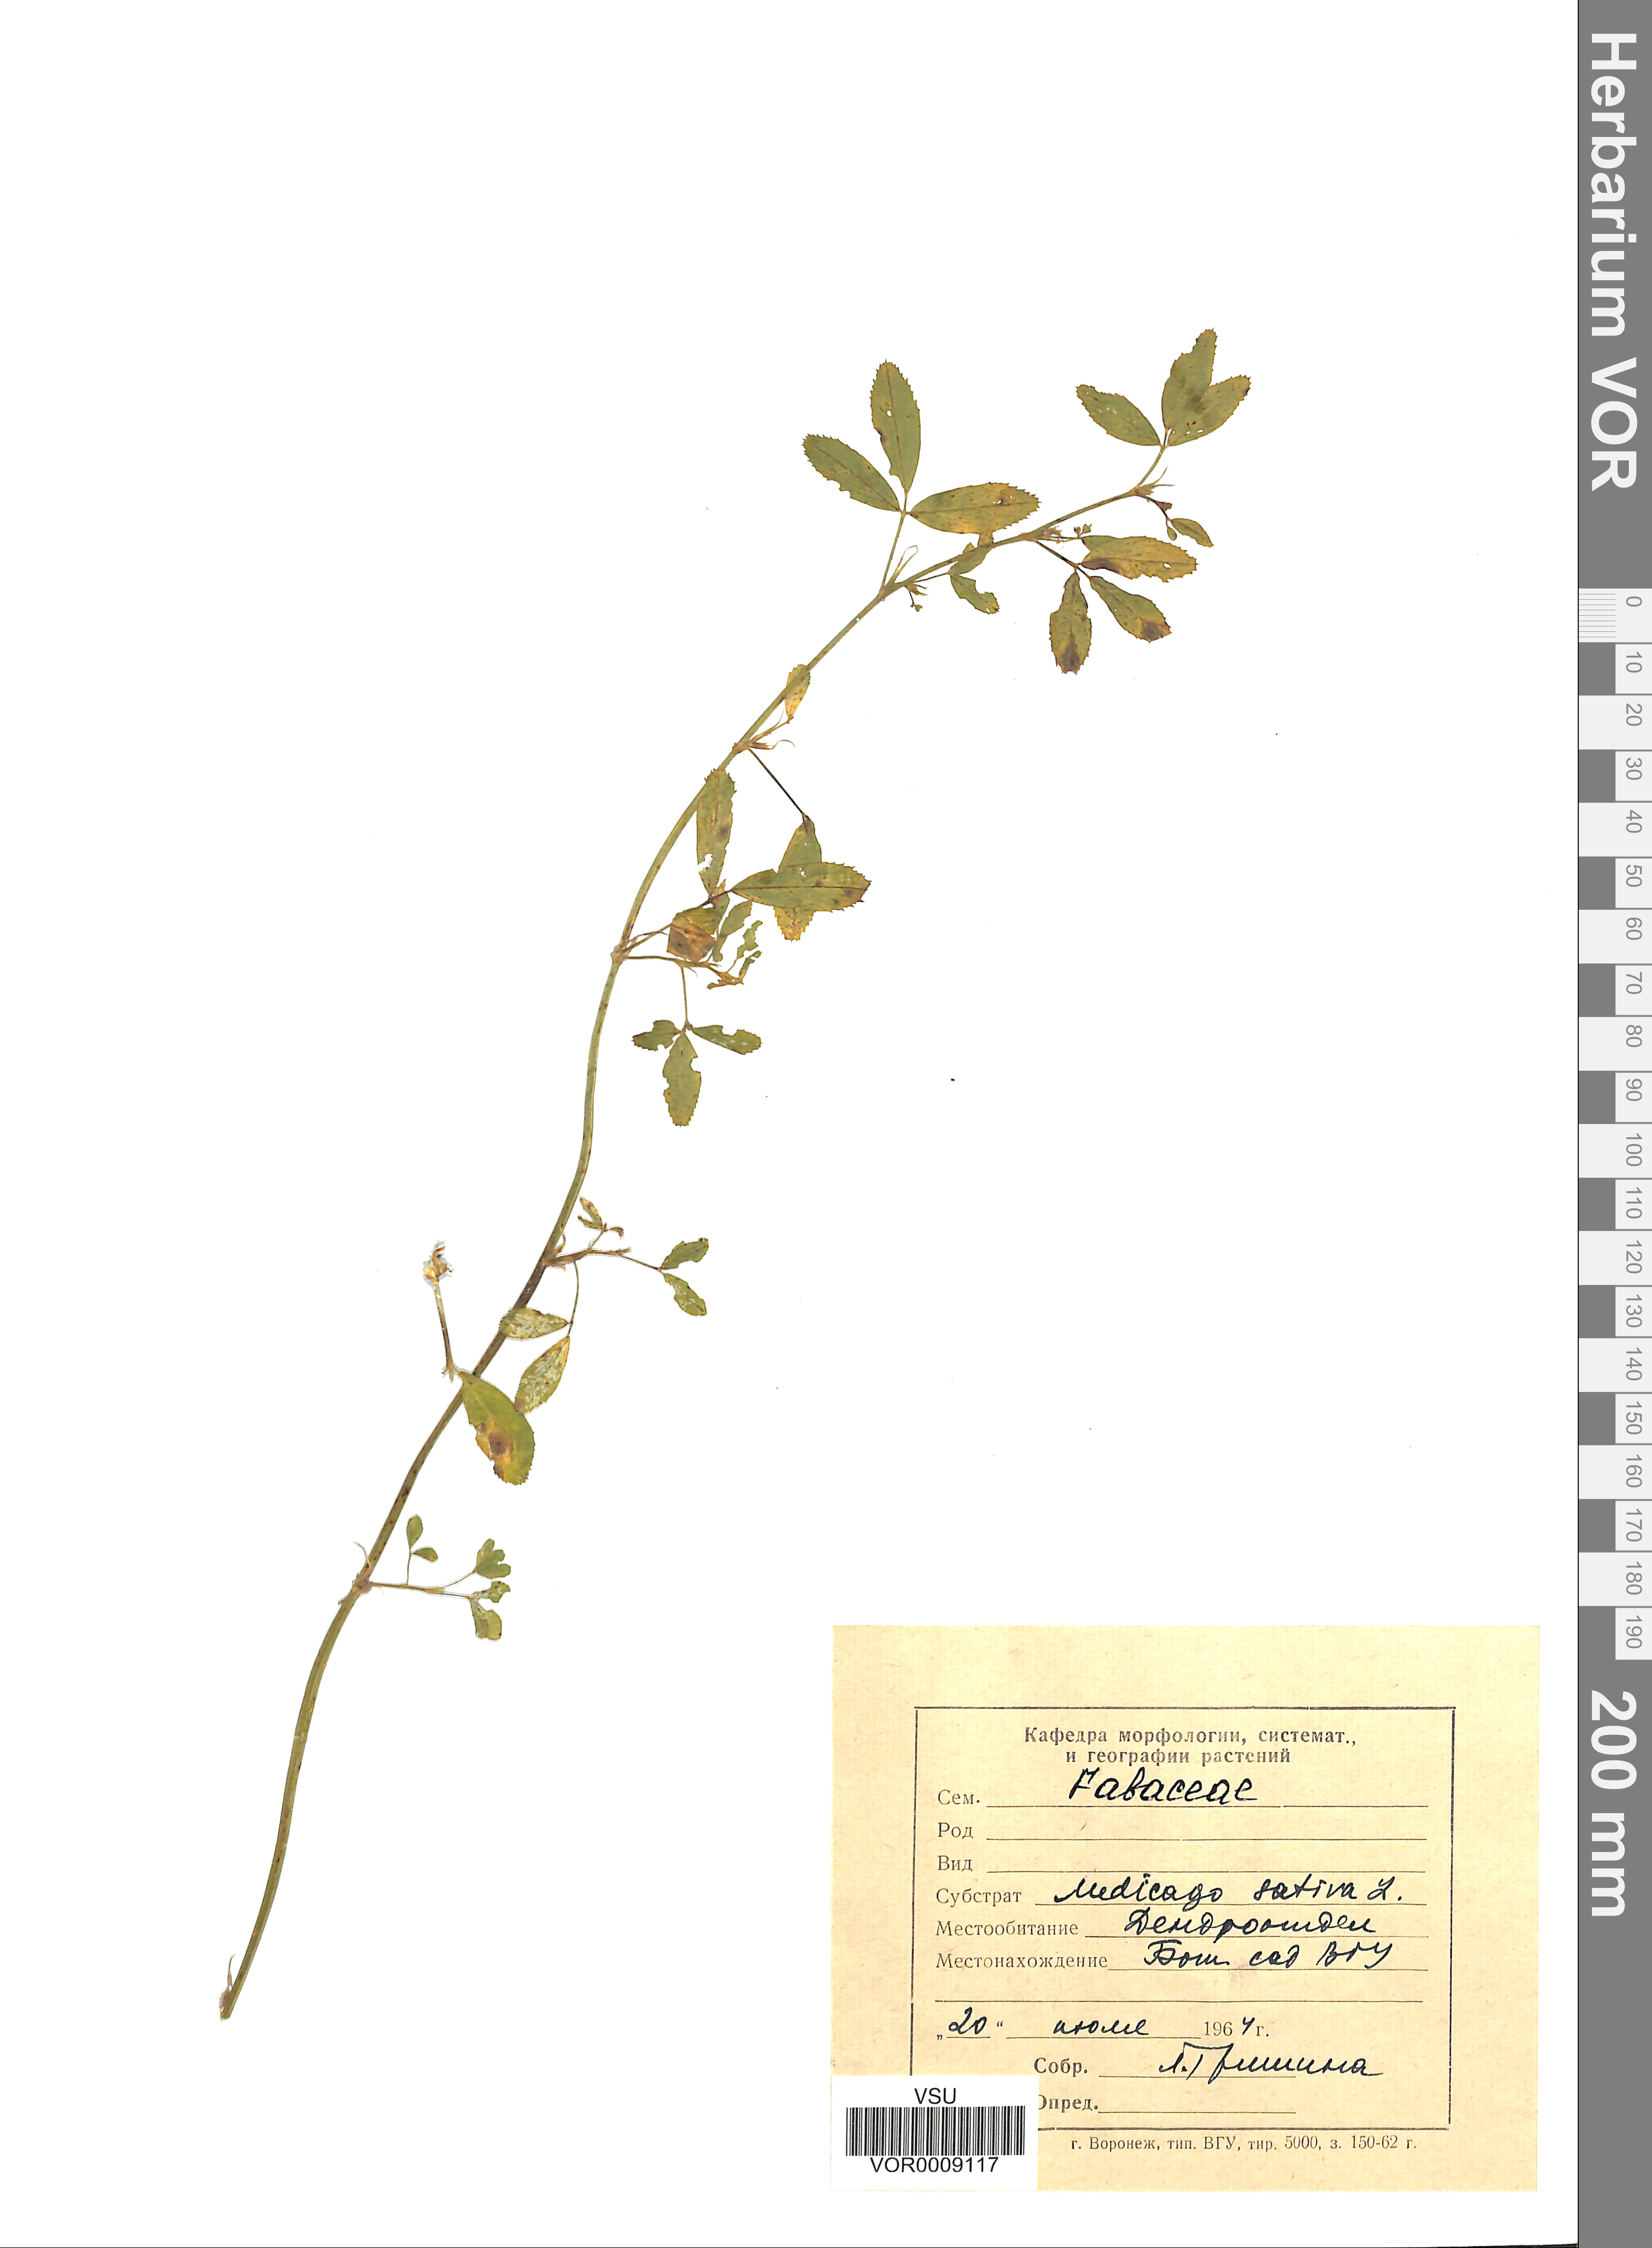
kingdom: Plantae
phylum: Tracheophyta
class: Magnoliopsida
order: Fabales
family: Fabaceae
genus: Medicago
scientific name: Medicago sativa
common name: Alfalfa
